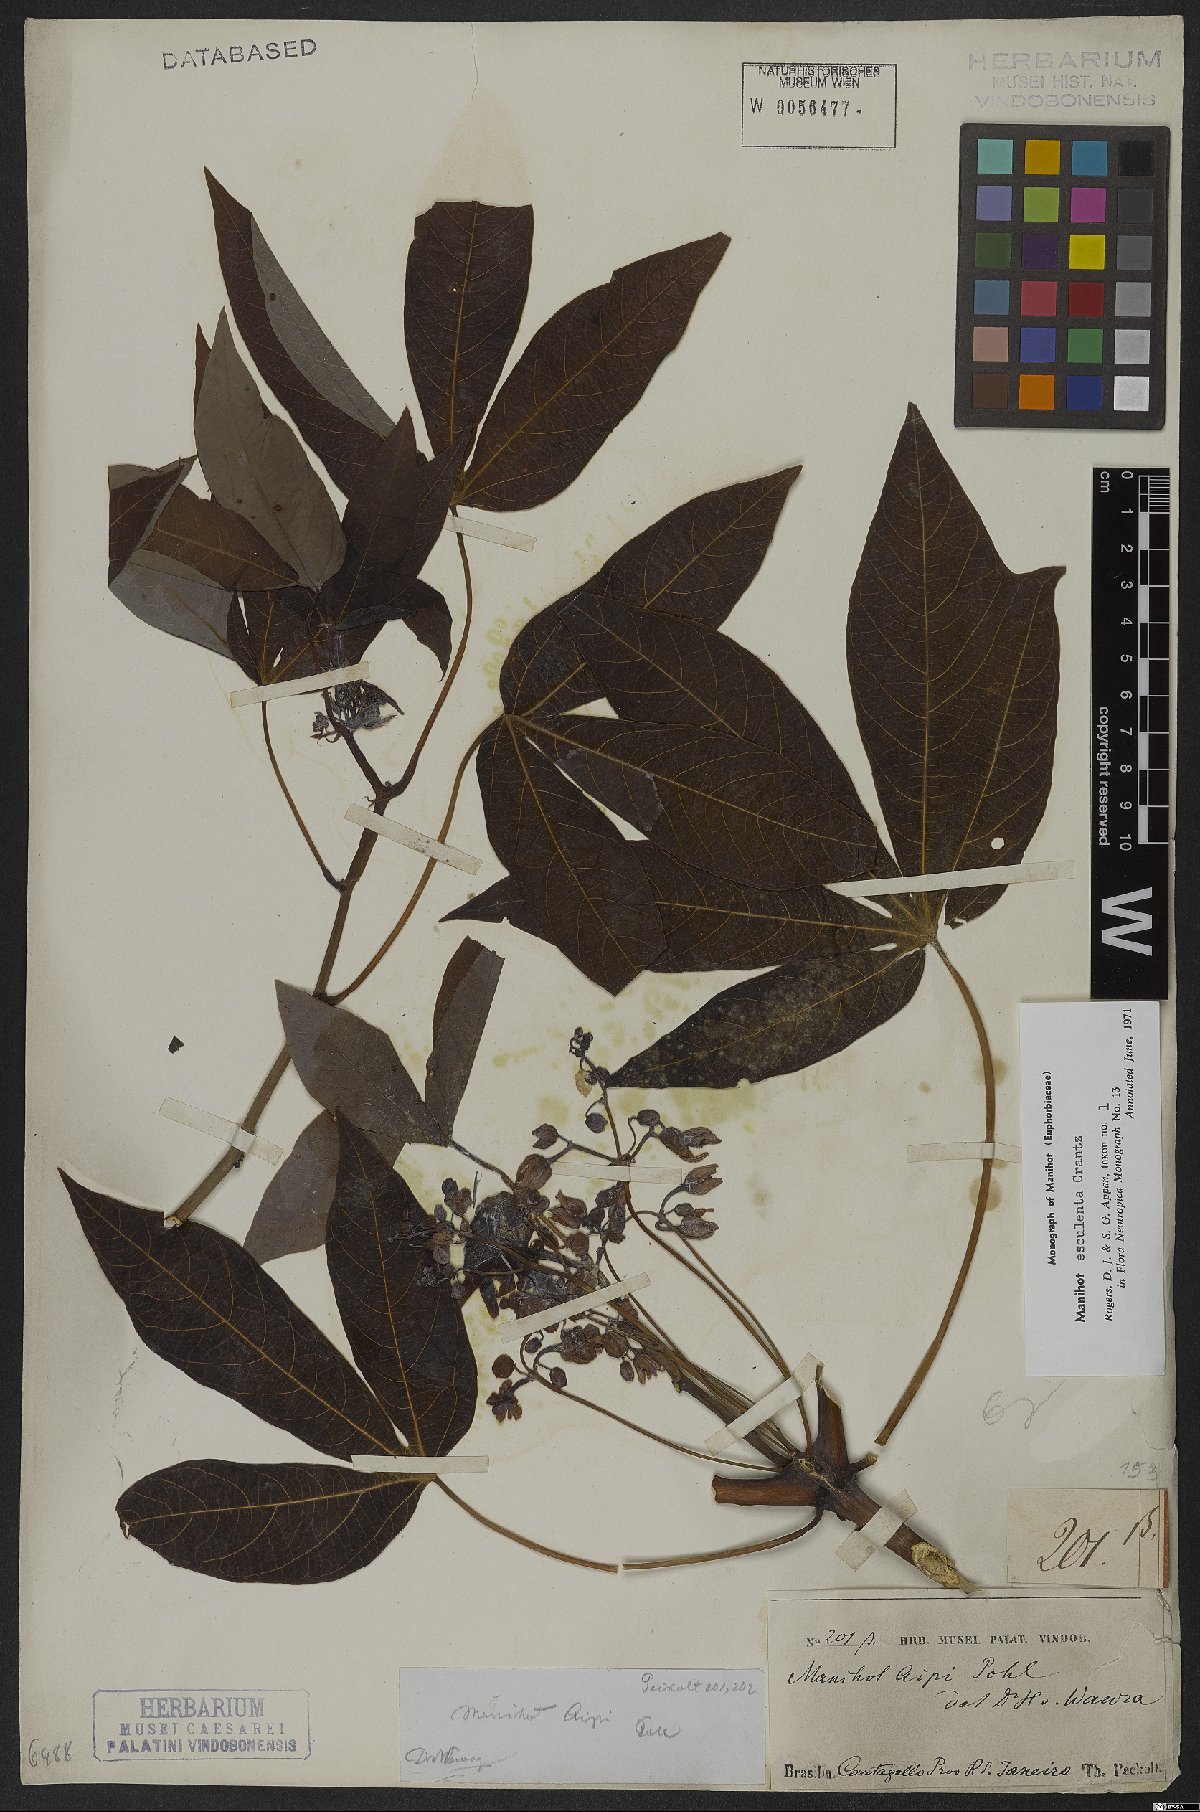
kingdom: Plantae
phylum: Tracheophyta
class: Magnoliopsida
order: Malpighiales
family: Euphorbiaceae
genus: Manihot
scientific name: Manihot esculenta
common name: Cassava
